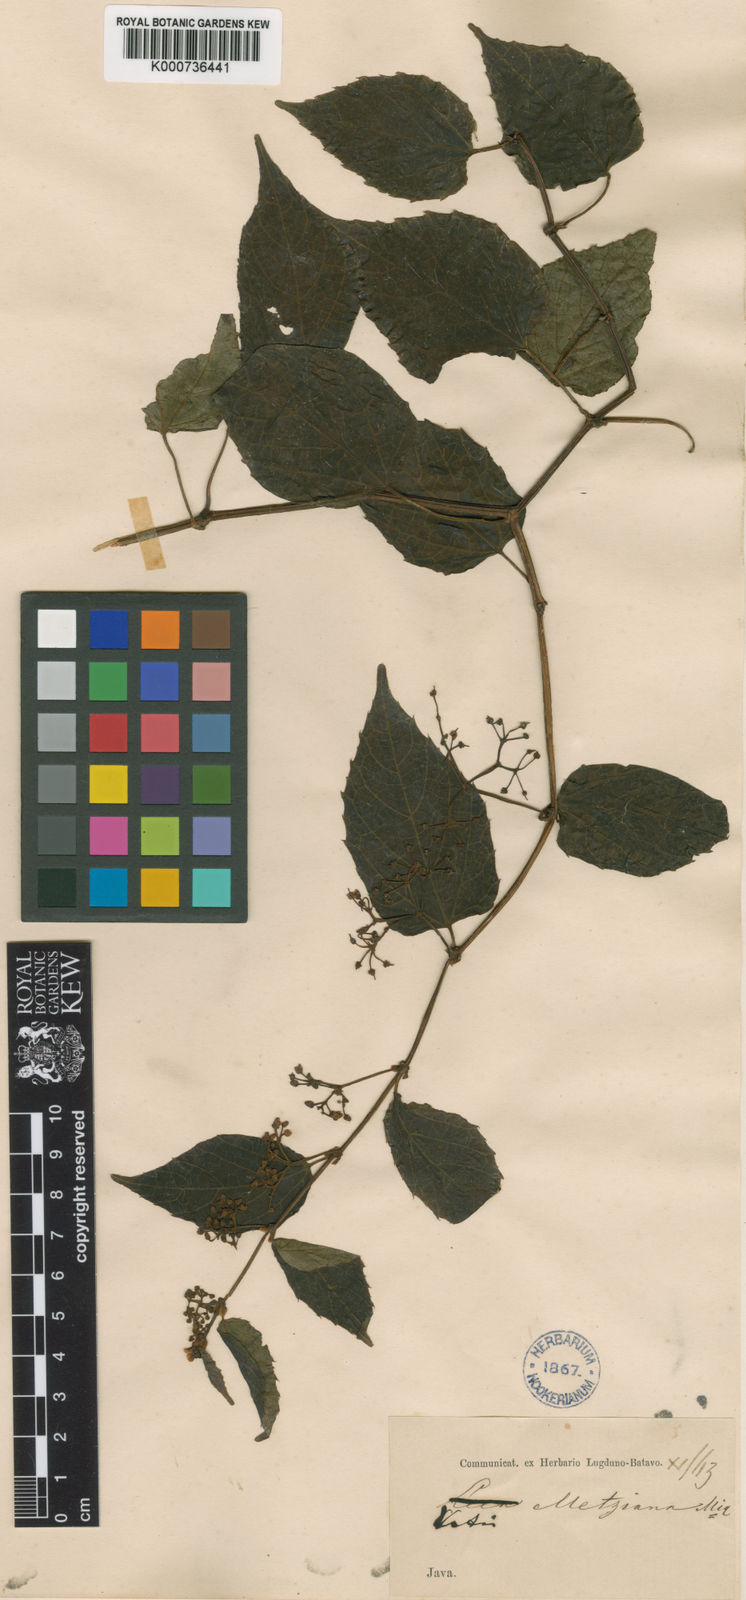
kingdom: Plantae
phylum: Tracheophyta
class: Magnoliopsida
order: Vitales
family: Vitaceae
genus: Cissus
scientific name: Cissus repens
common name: Cissus
